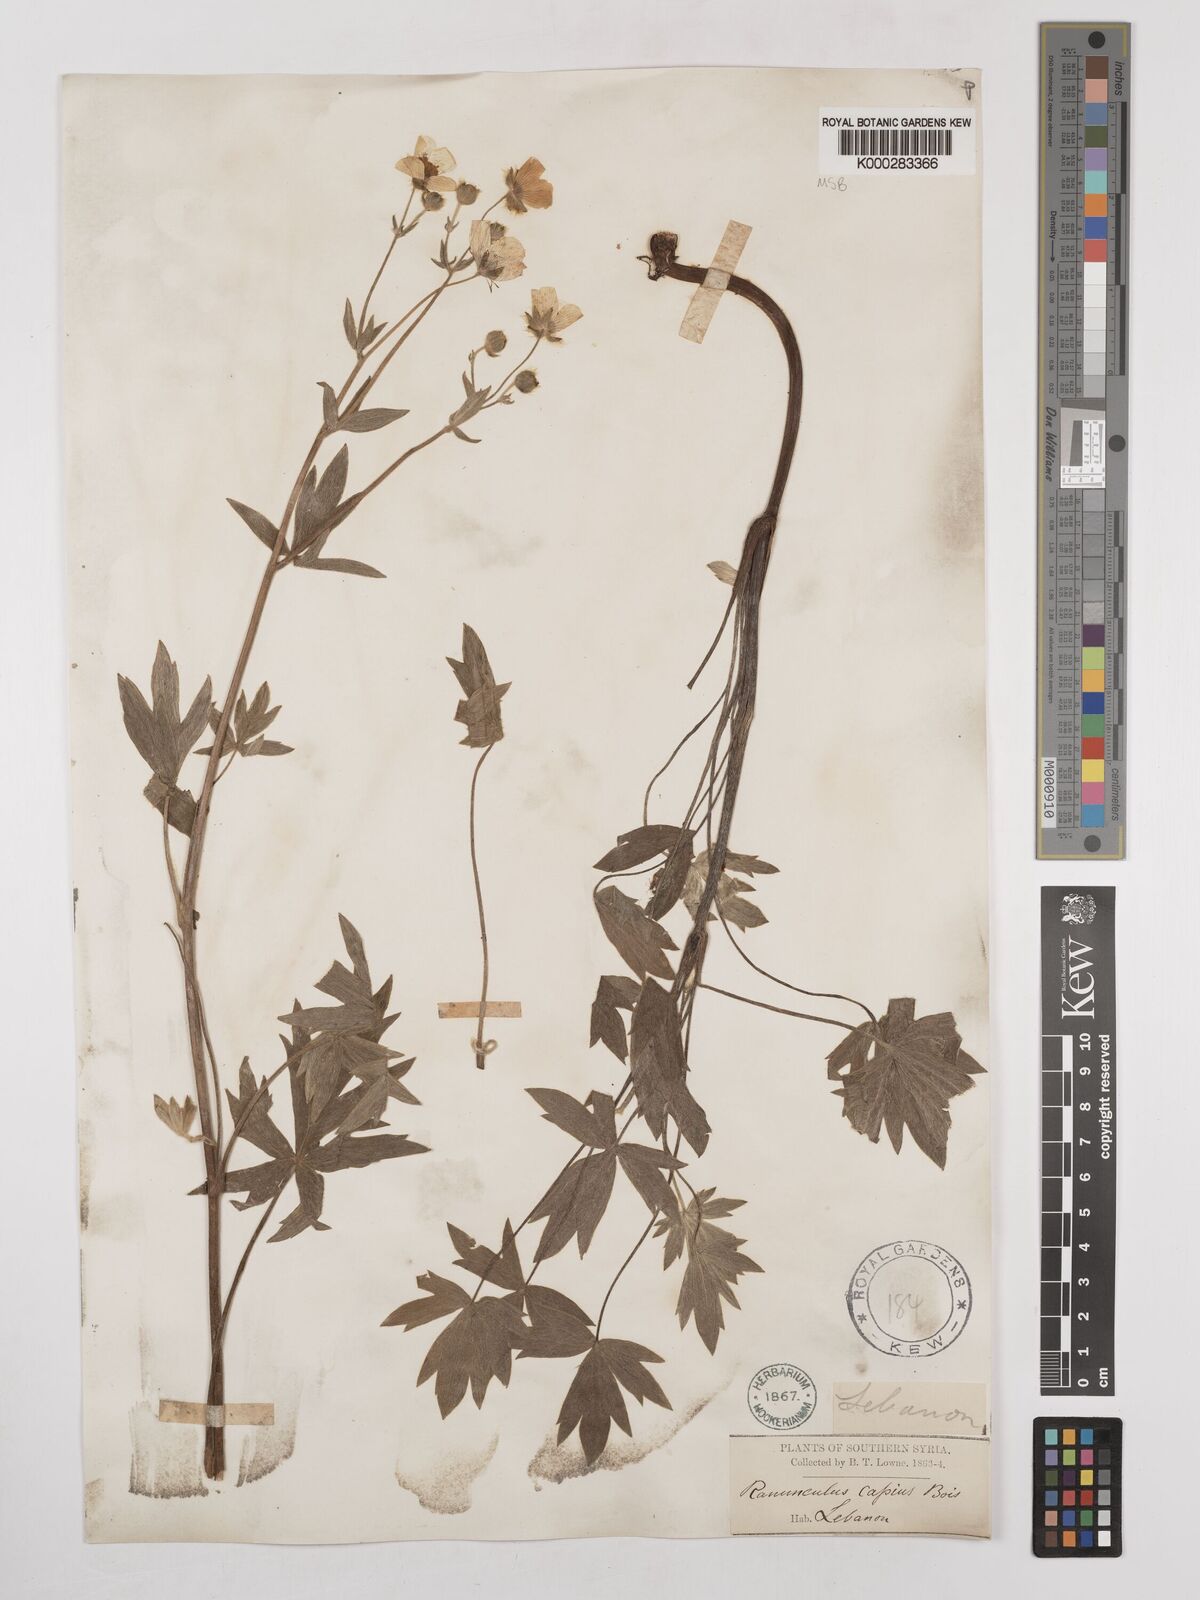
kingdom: Plantae
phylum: Tracheophyta
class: Magnoliopsida
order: Ranunculales
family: Ranunculaceae
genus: Ranunculus
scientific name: Ranunculus sericeus
